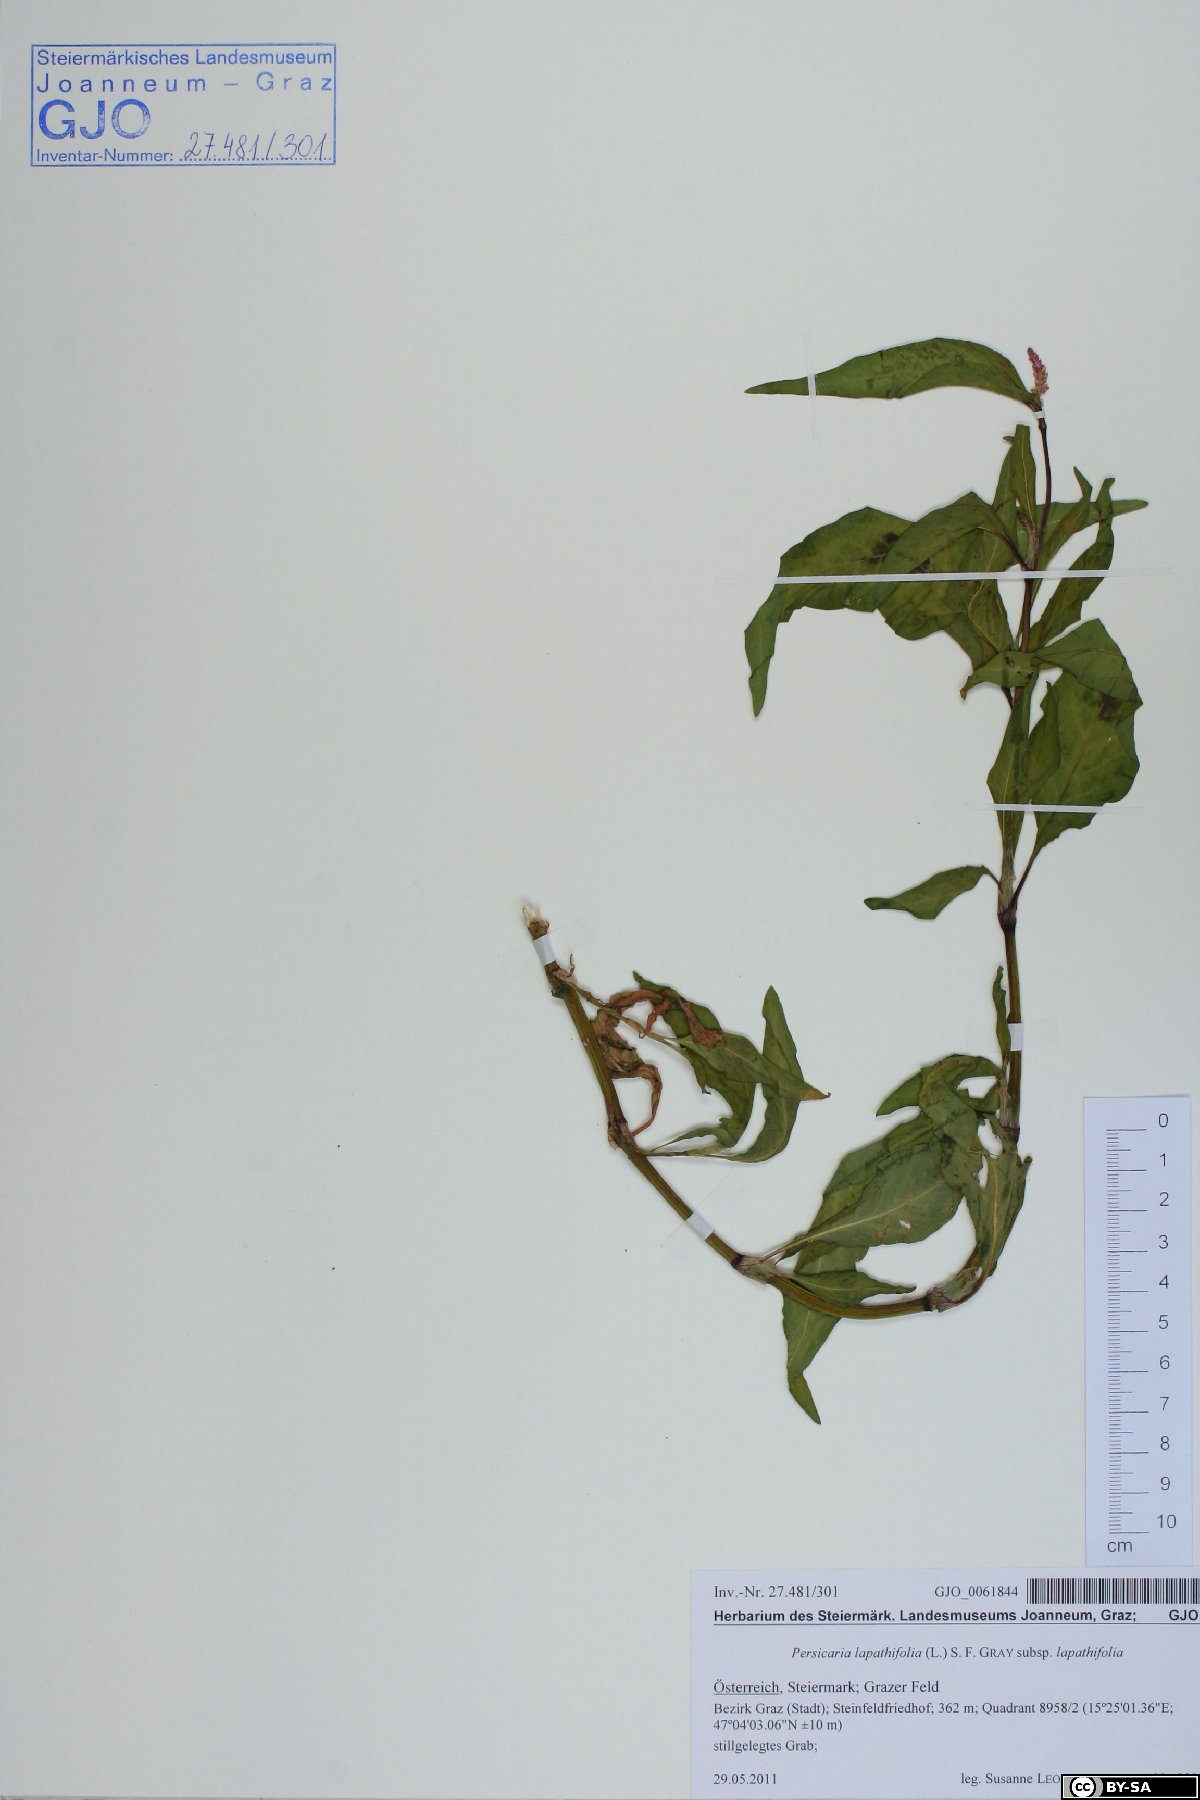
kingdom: Plantae
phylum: Tracheophyta
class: Magnoliopsida
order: Caryophyllales
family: Polygonaceae
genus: Persicaria
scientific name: Persicaria lapathifolia
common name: Curlytop knotweed
